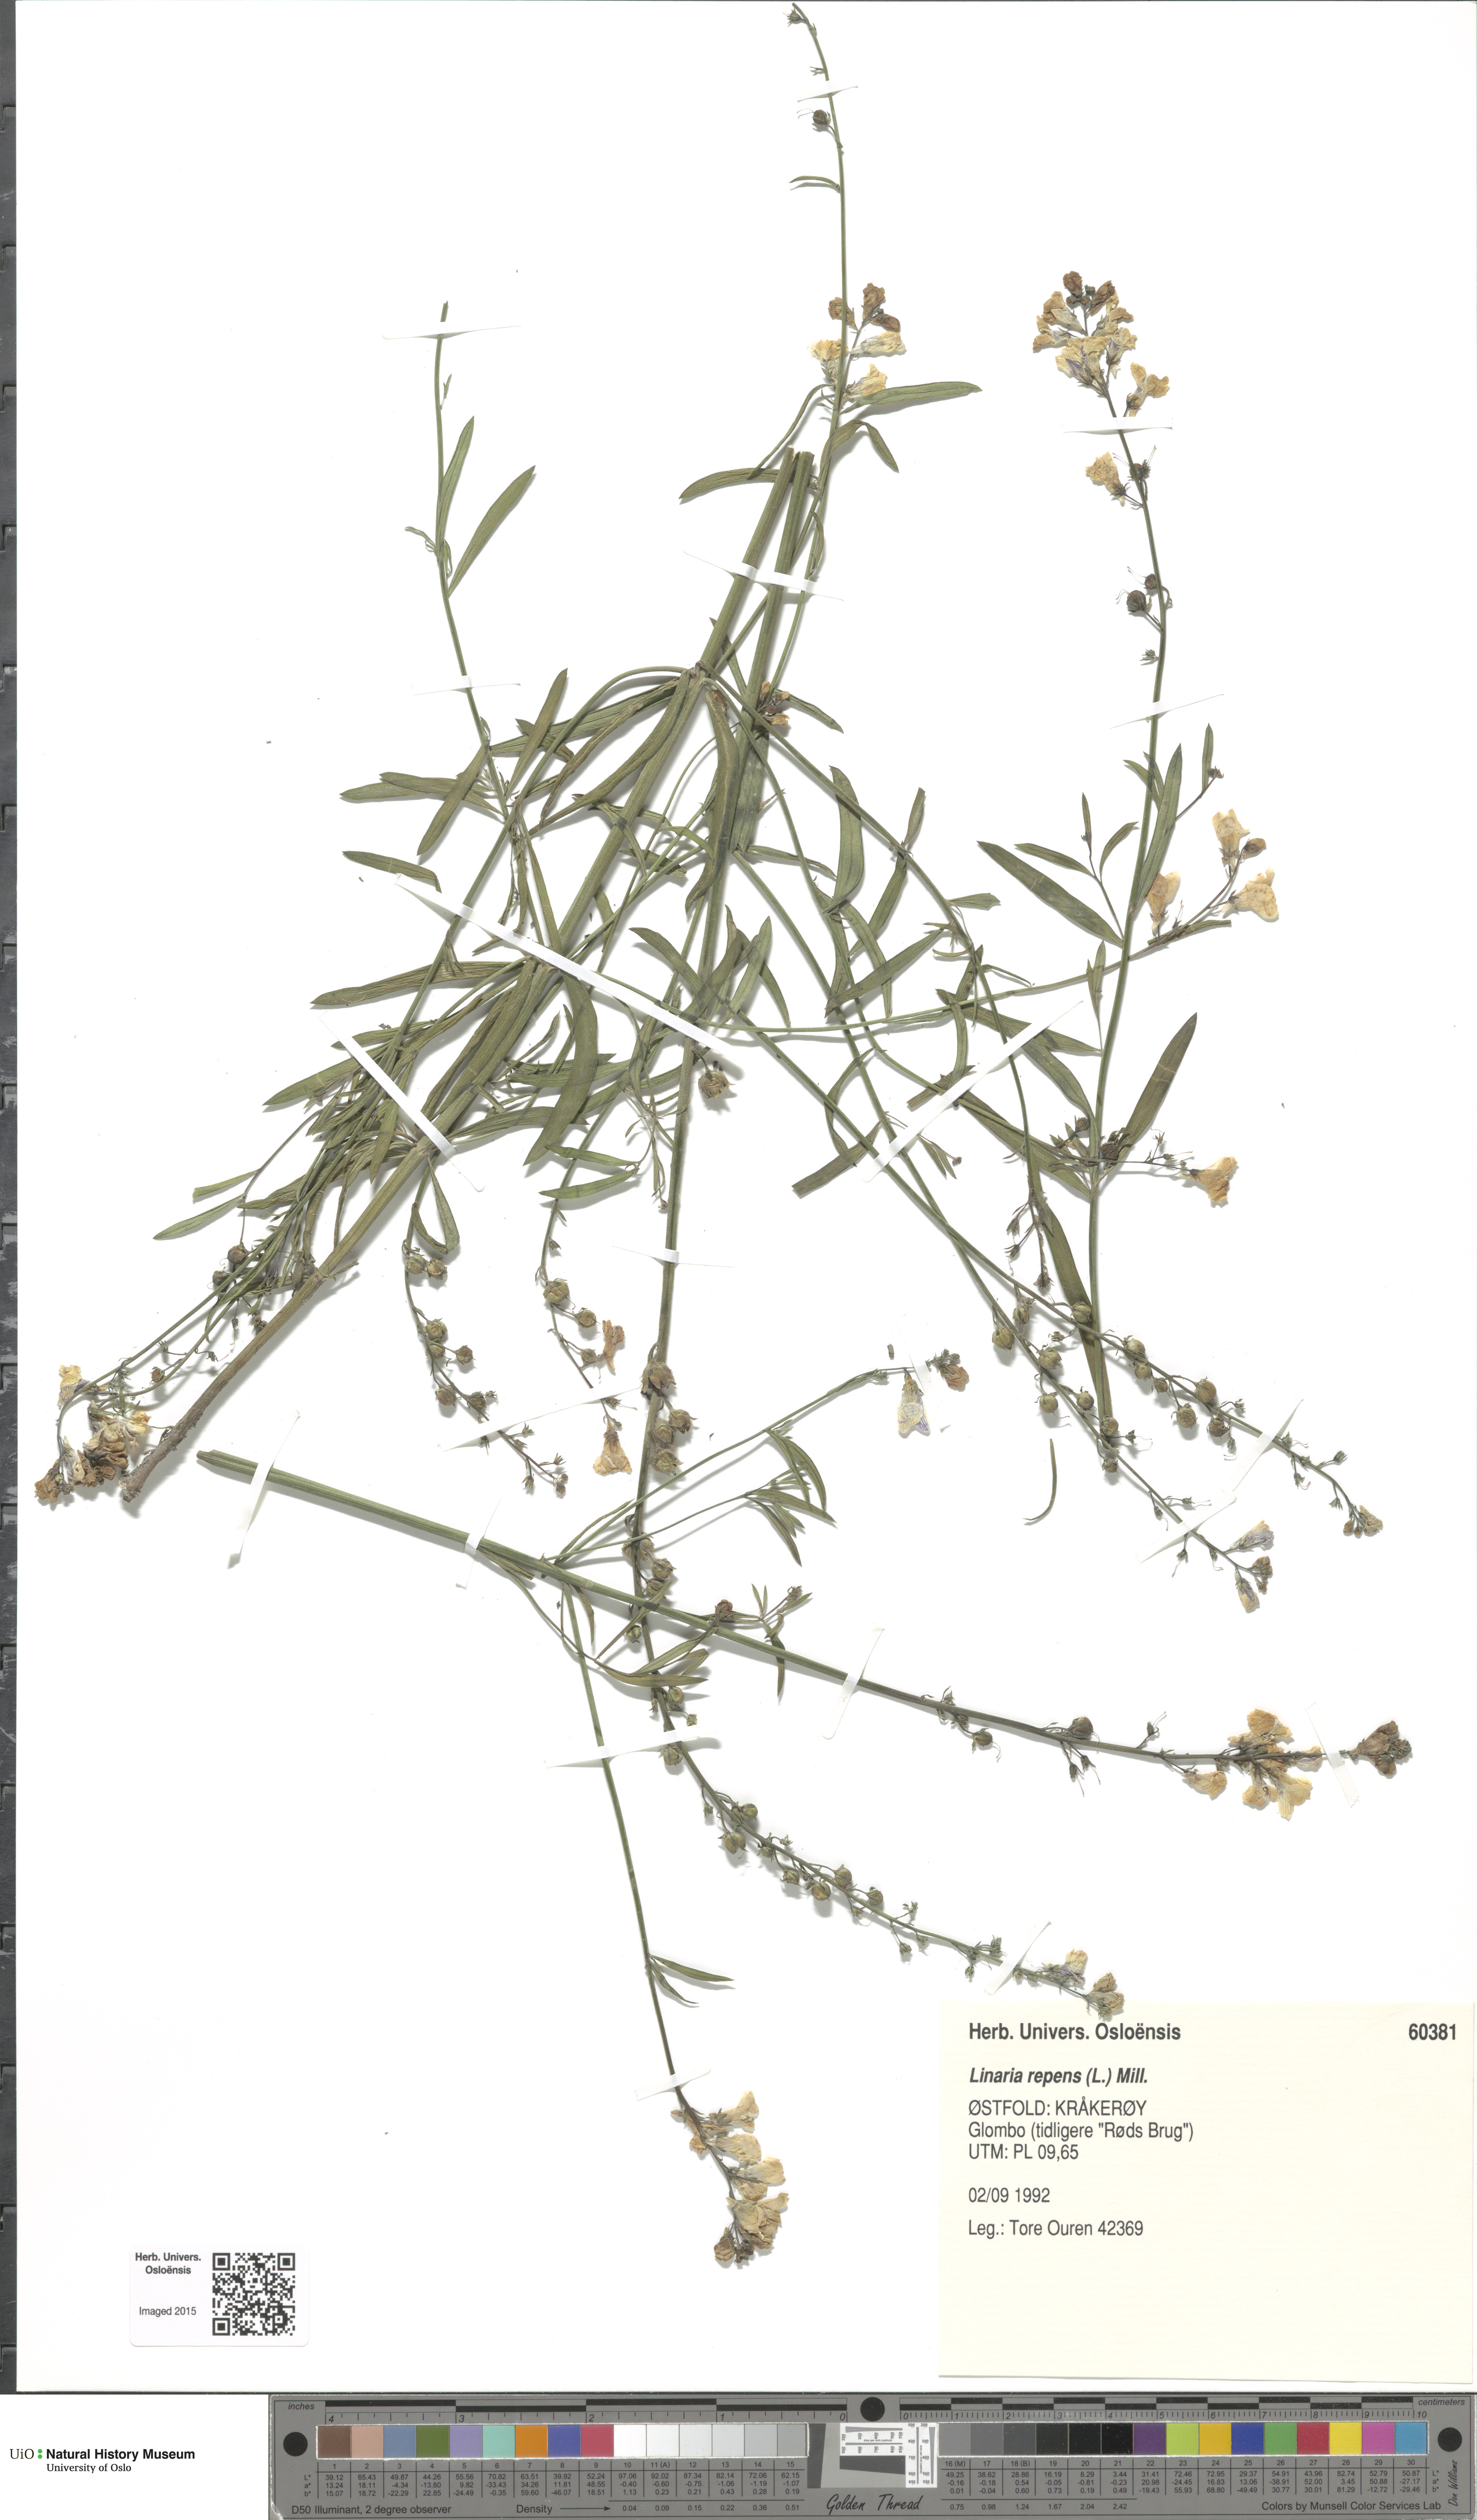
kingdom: Plantae
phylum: Tracheophyta
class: Magnoliopsida
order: Lamiales
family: Plantaginaceae
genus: Linaria
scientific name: Linaria repens
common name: Pale toadflax
